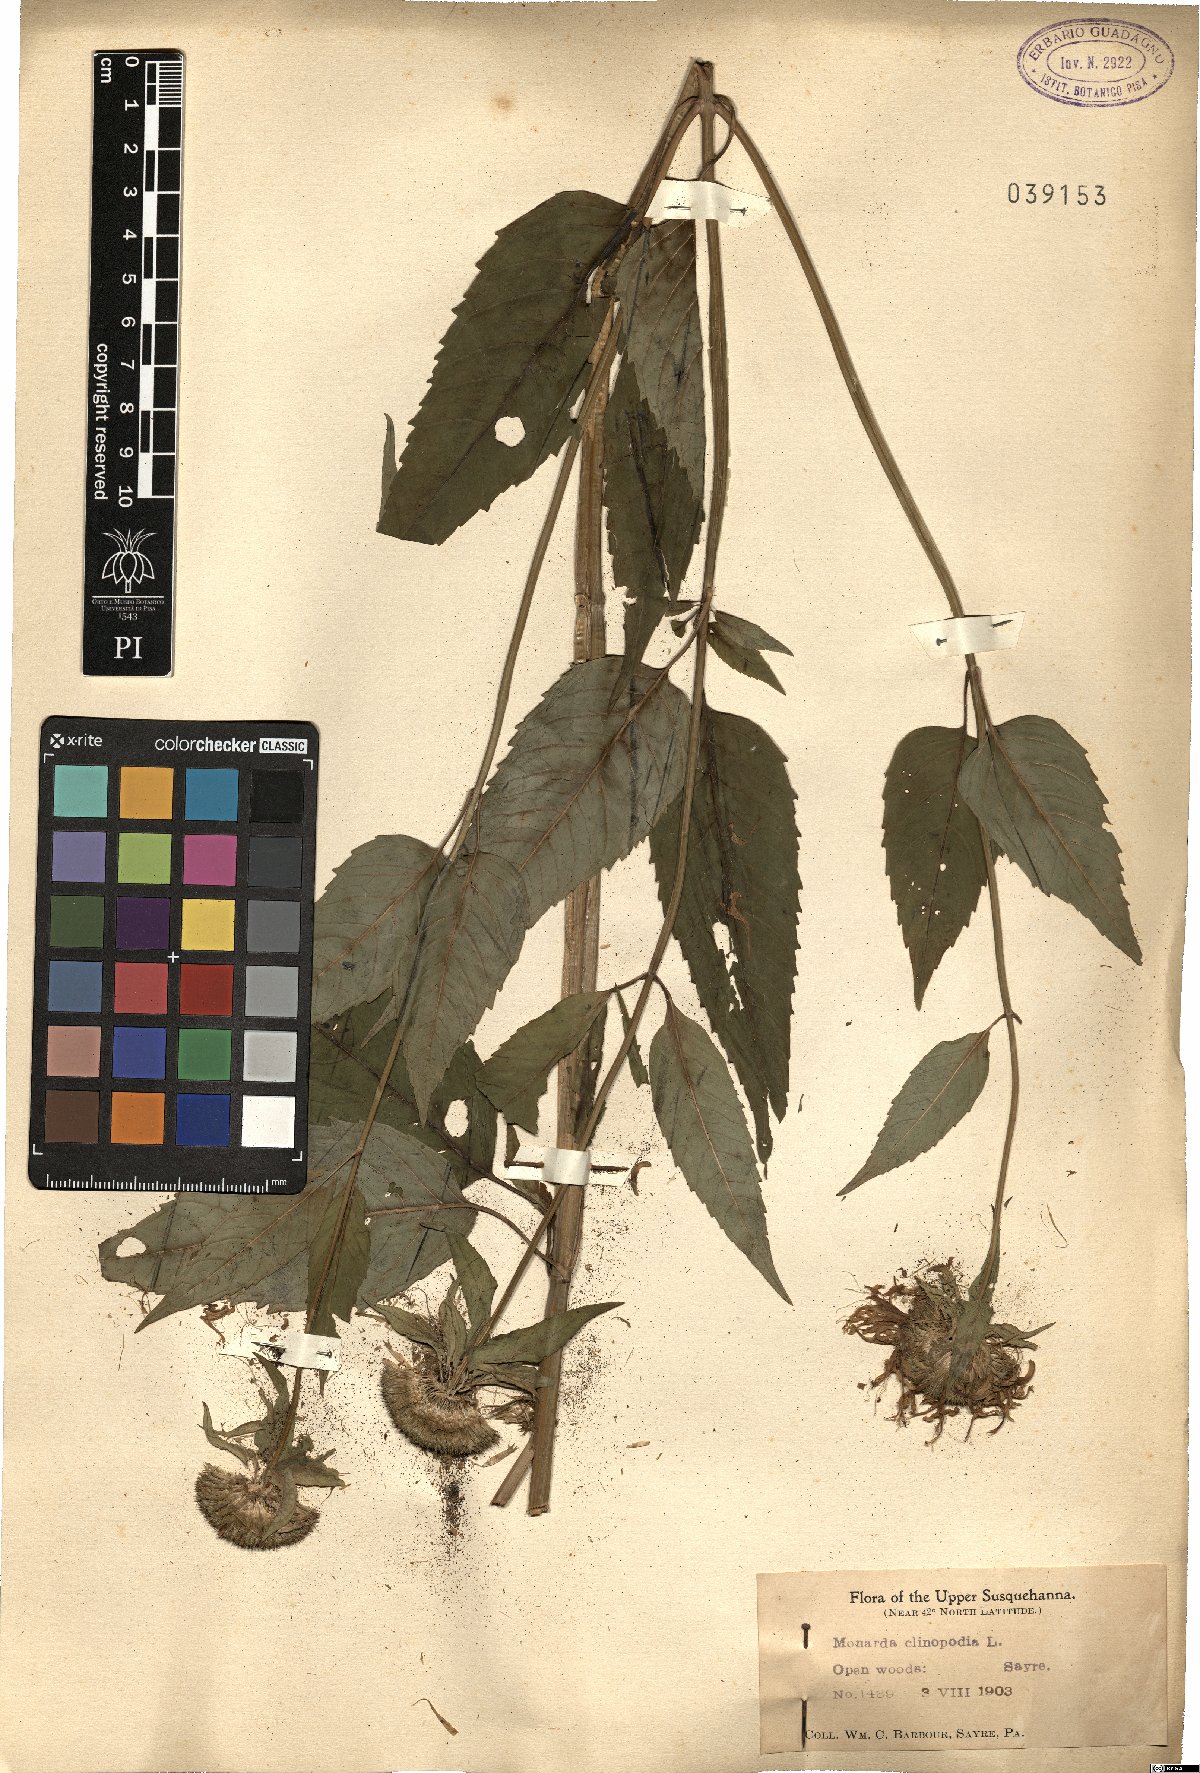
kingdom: Plantae
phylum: Tracheophyta
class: Magnoliopsida
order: Lamiales
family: Lamiaceae
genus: Monarda
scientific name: Monarda clinopodia
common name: Basil beebalm
